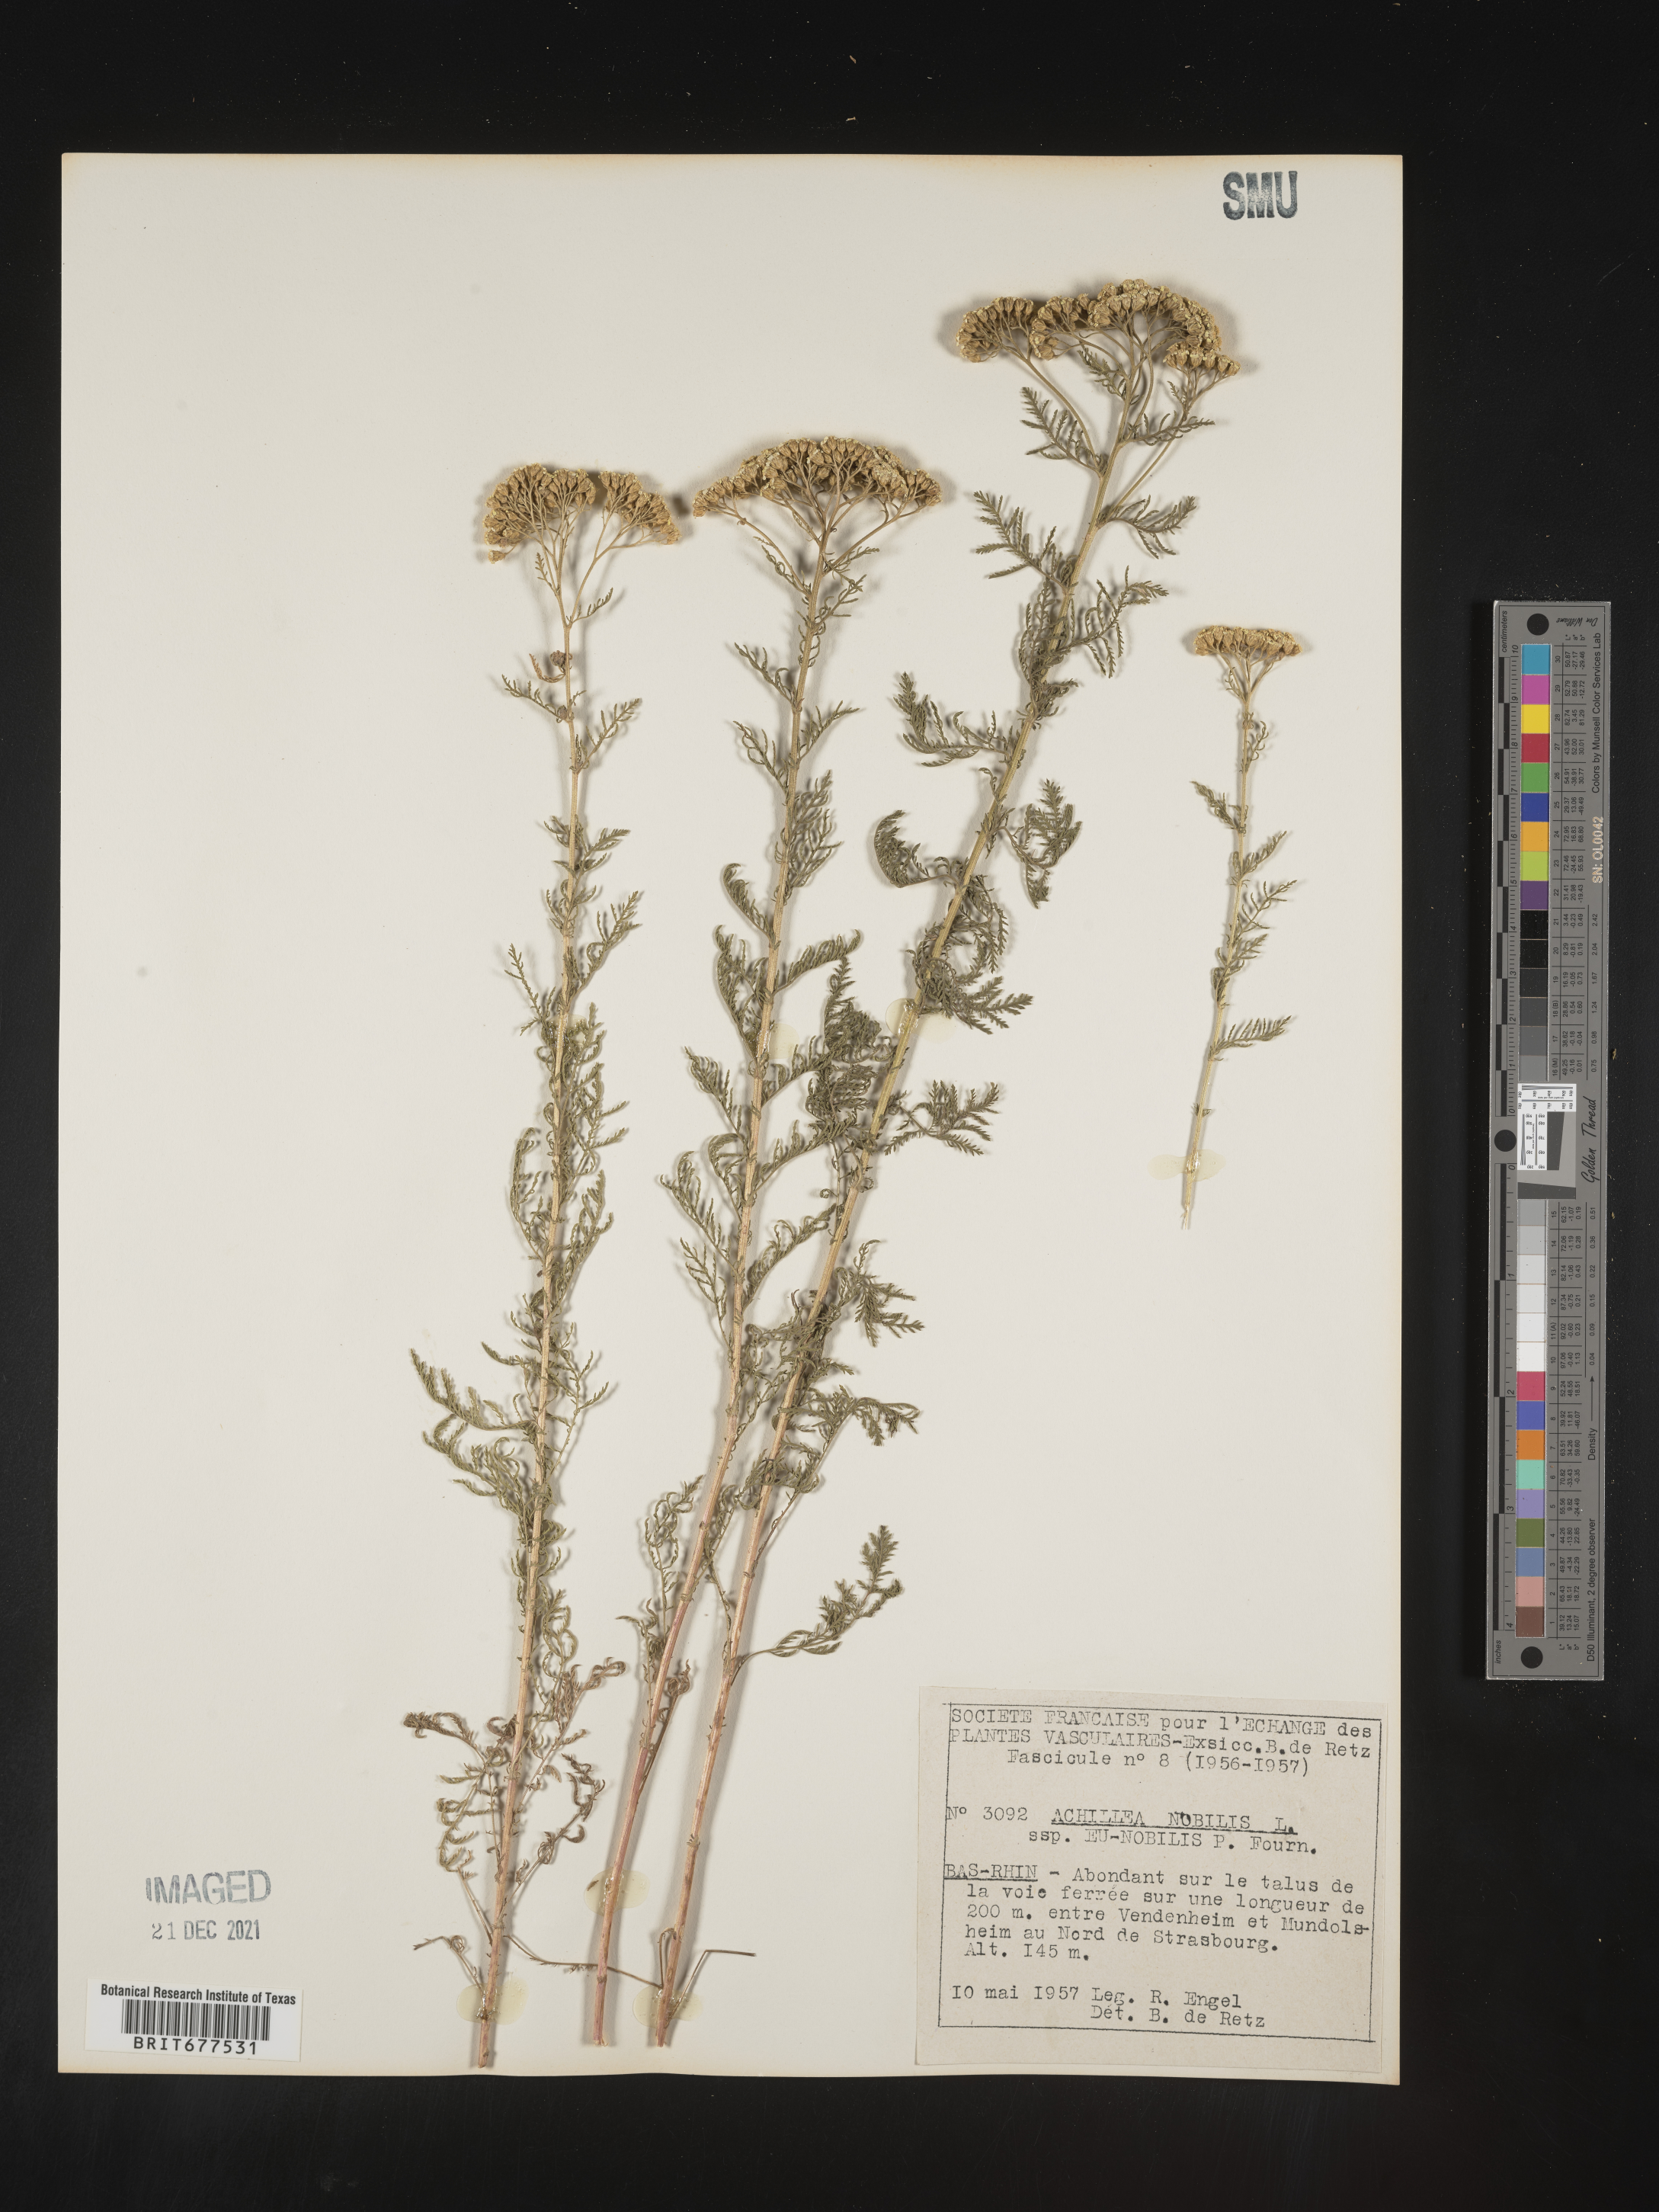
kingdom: Plantae
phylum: Tracheophyta
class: Magnoliopsida
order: Asterales
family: Asteraceae
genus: Achillea
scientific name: Achillea
